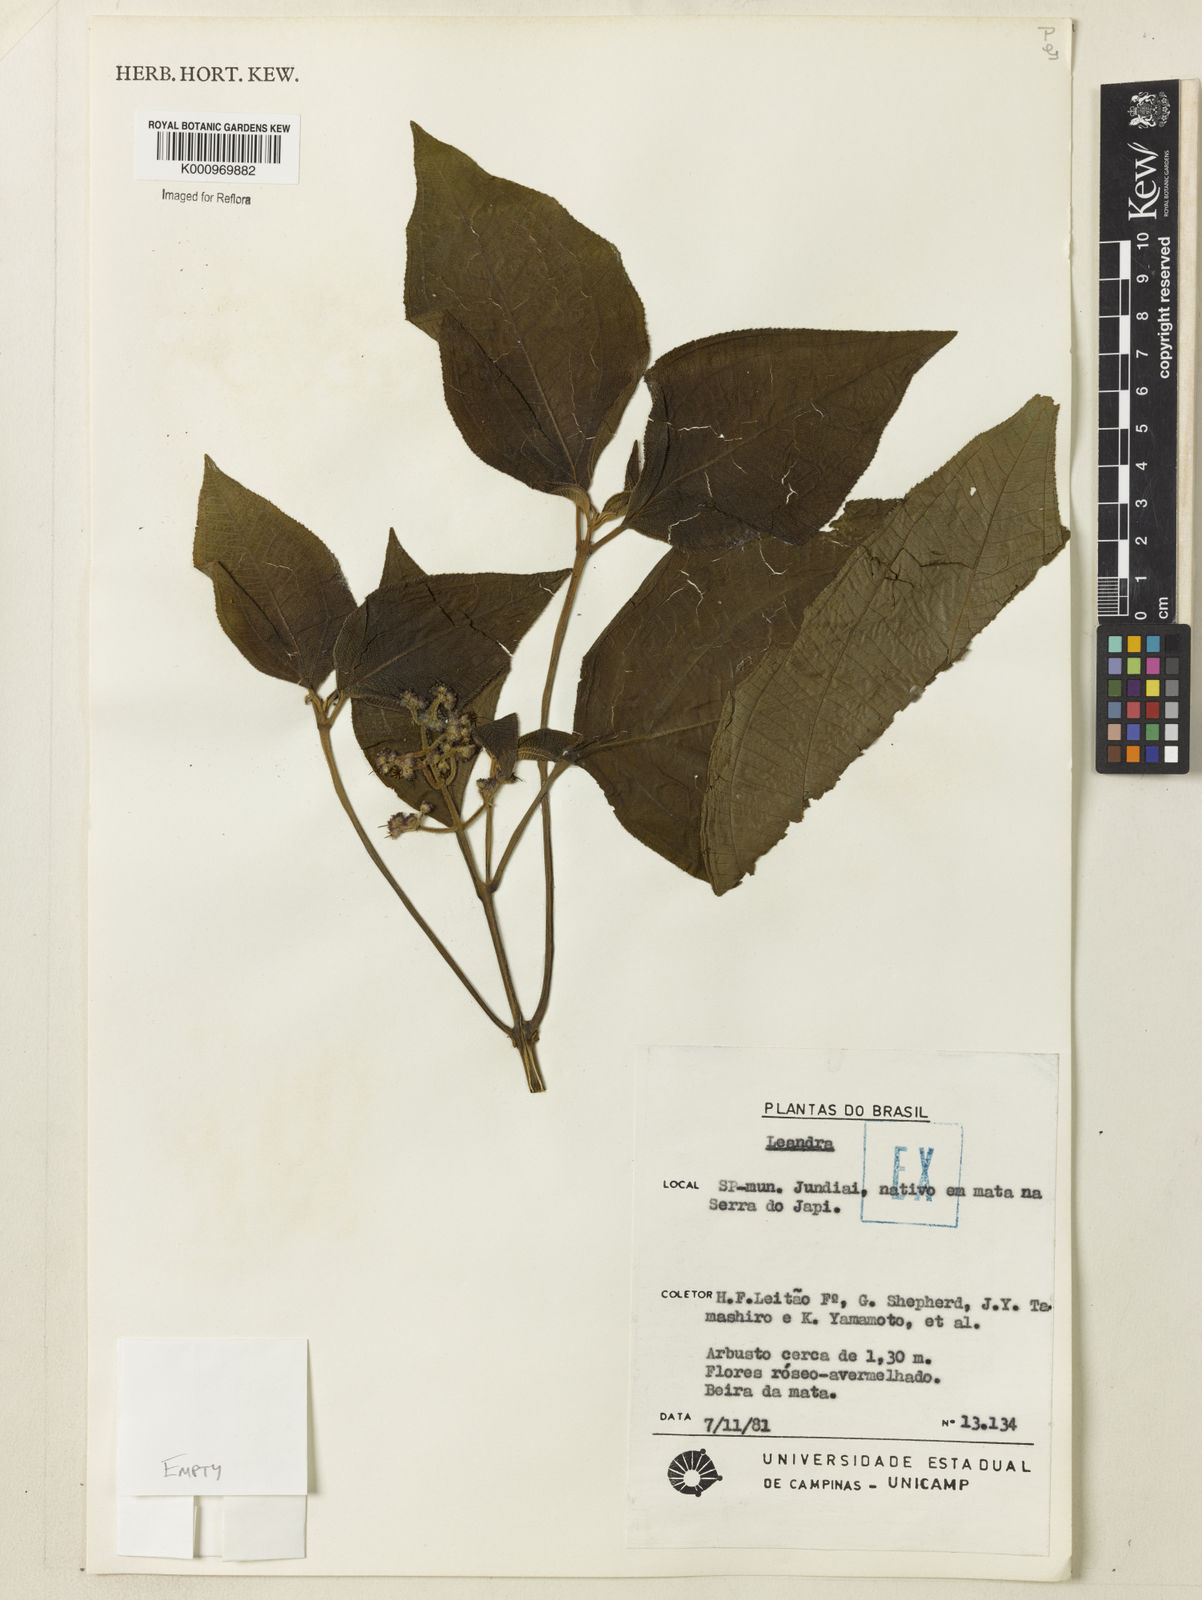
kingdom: Plantae
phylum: Tracheophyta
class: Magnoliopsida
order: Myrtales
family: Melastomataceae
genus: Miconia
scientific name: Miconia
